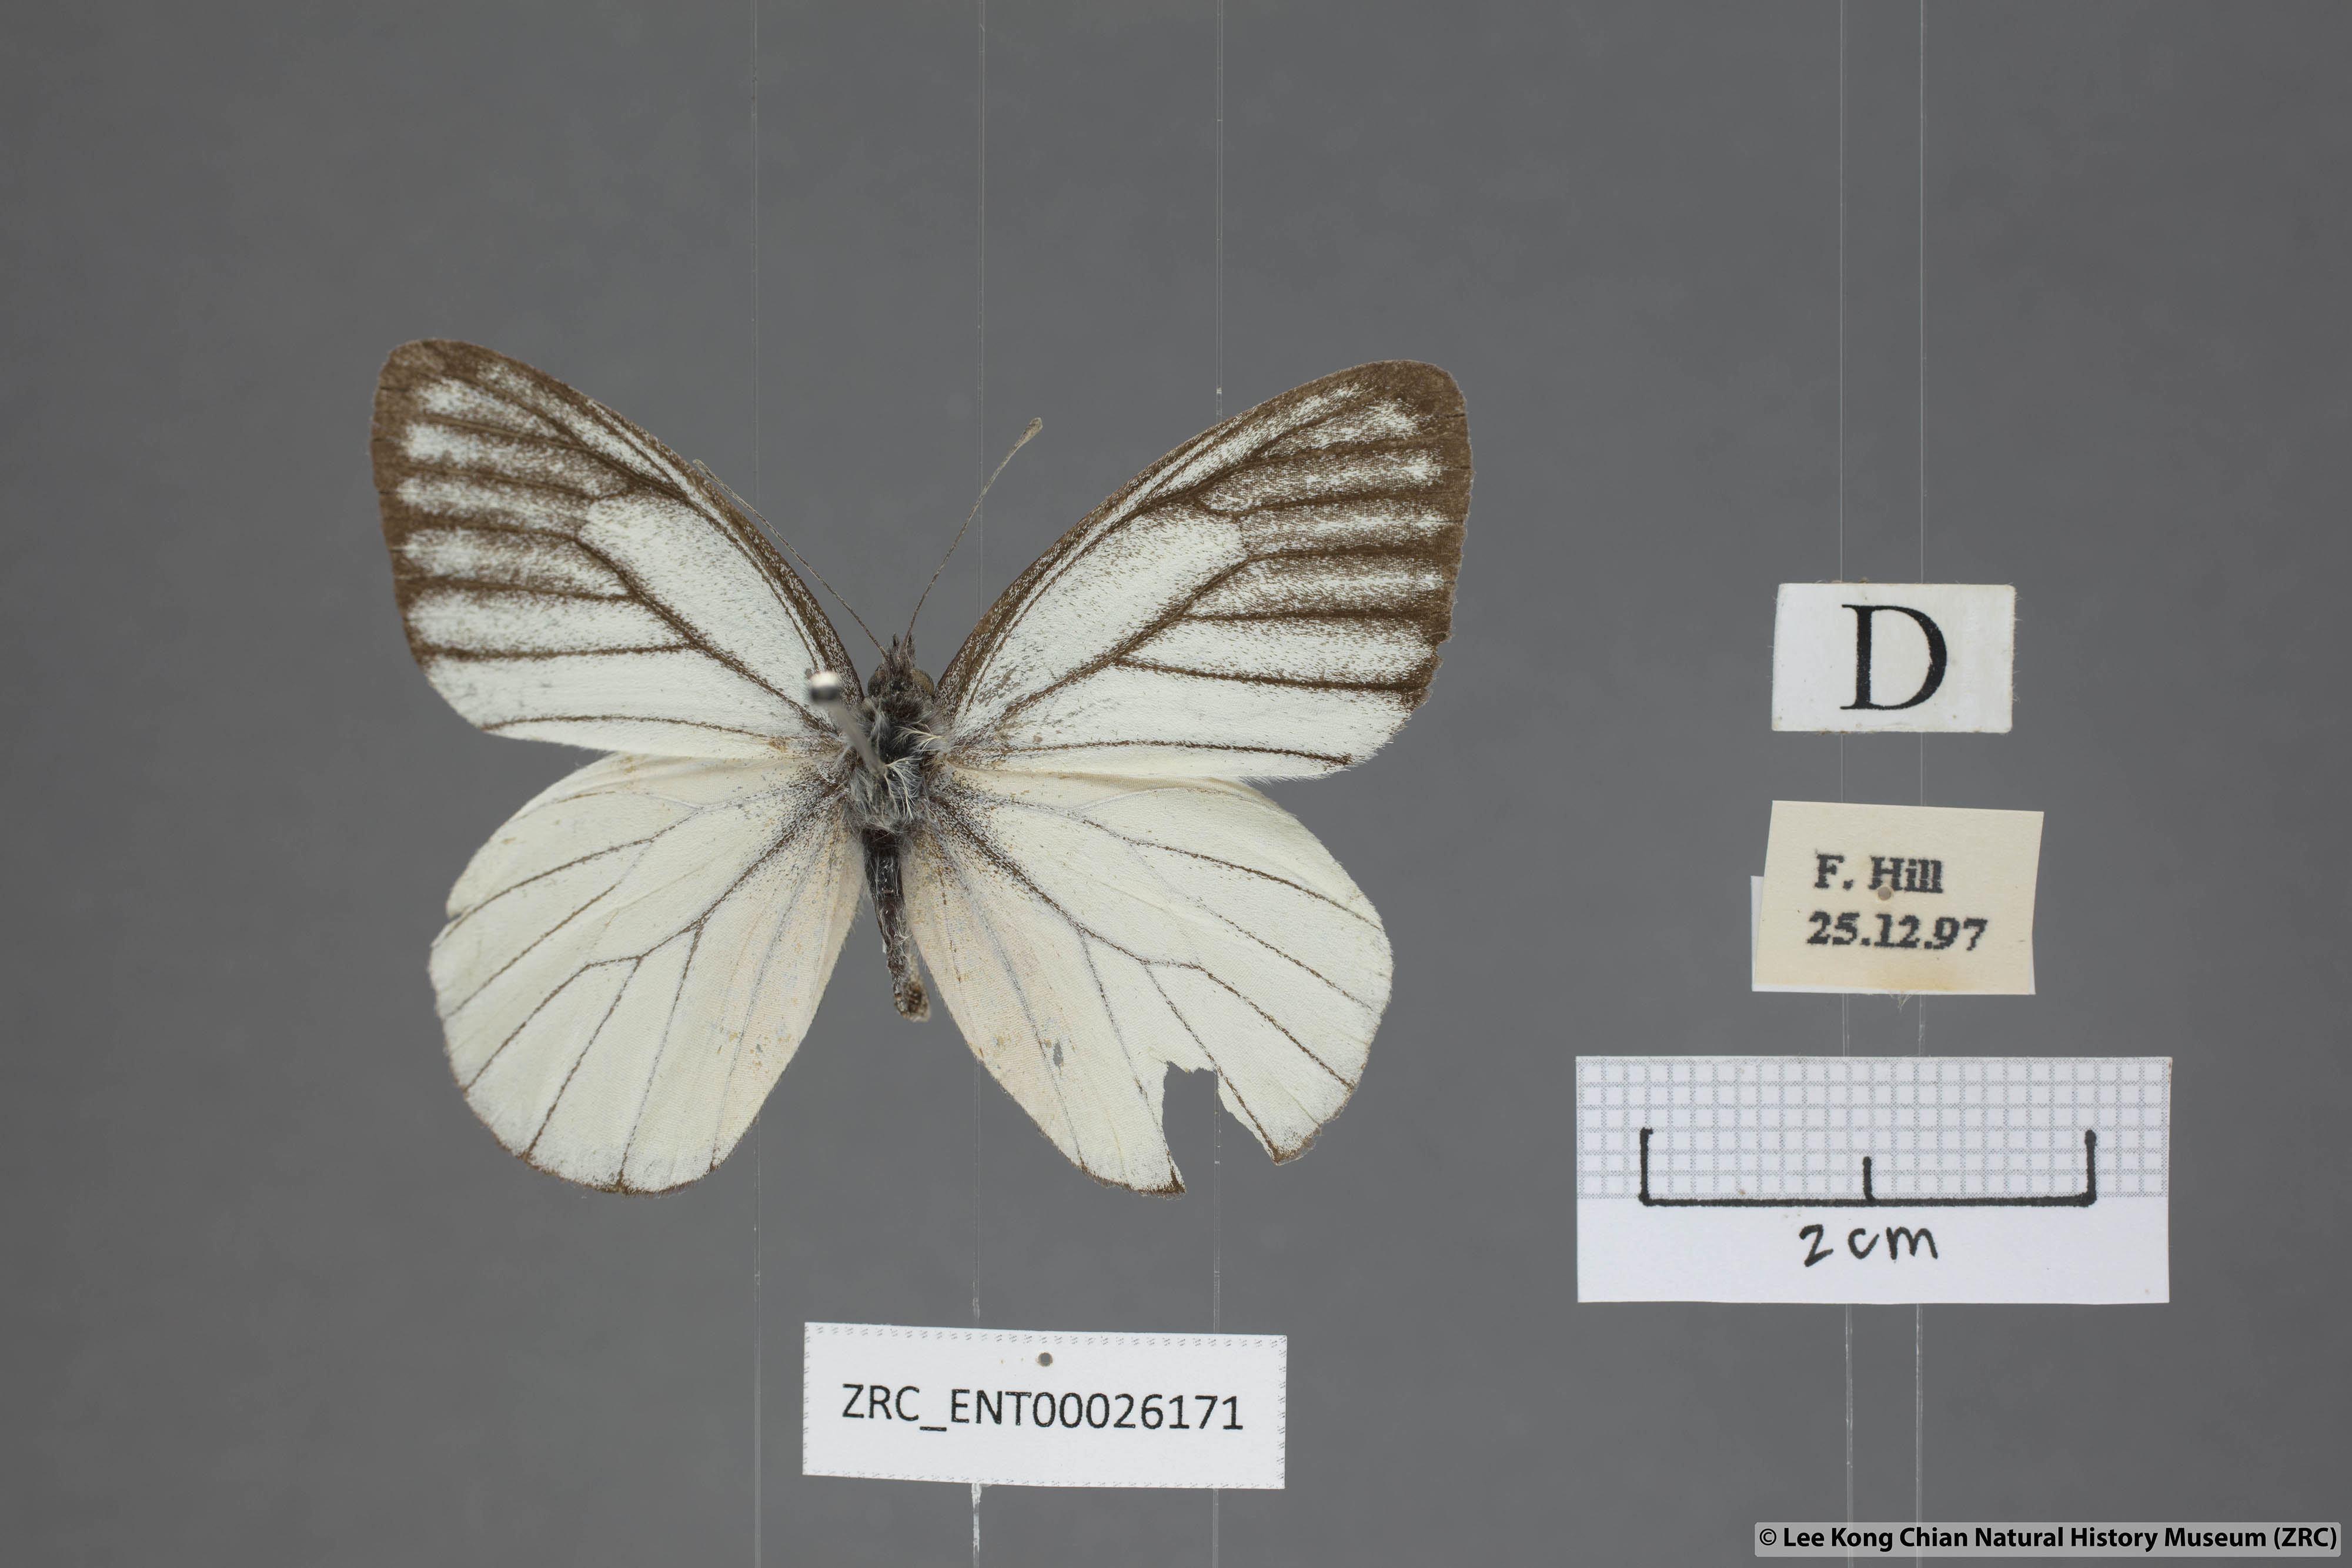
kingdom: Animalia
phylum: Arthropoda
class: Insecta
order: Lepidoptera
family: Pieridae
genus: Delias
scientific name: Delias baracasa
